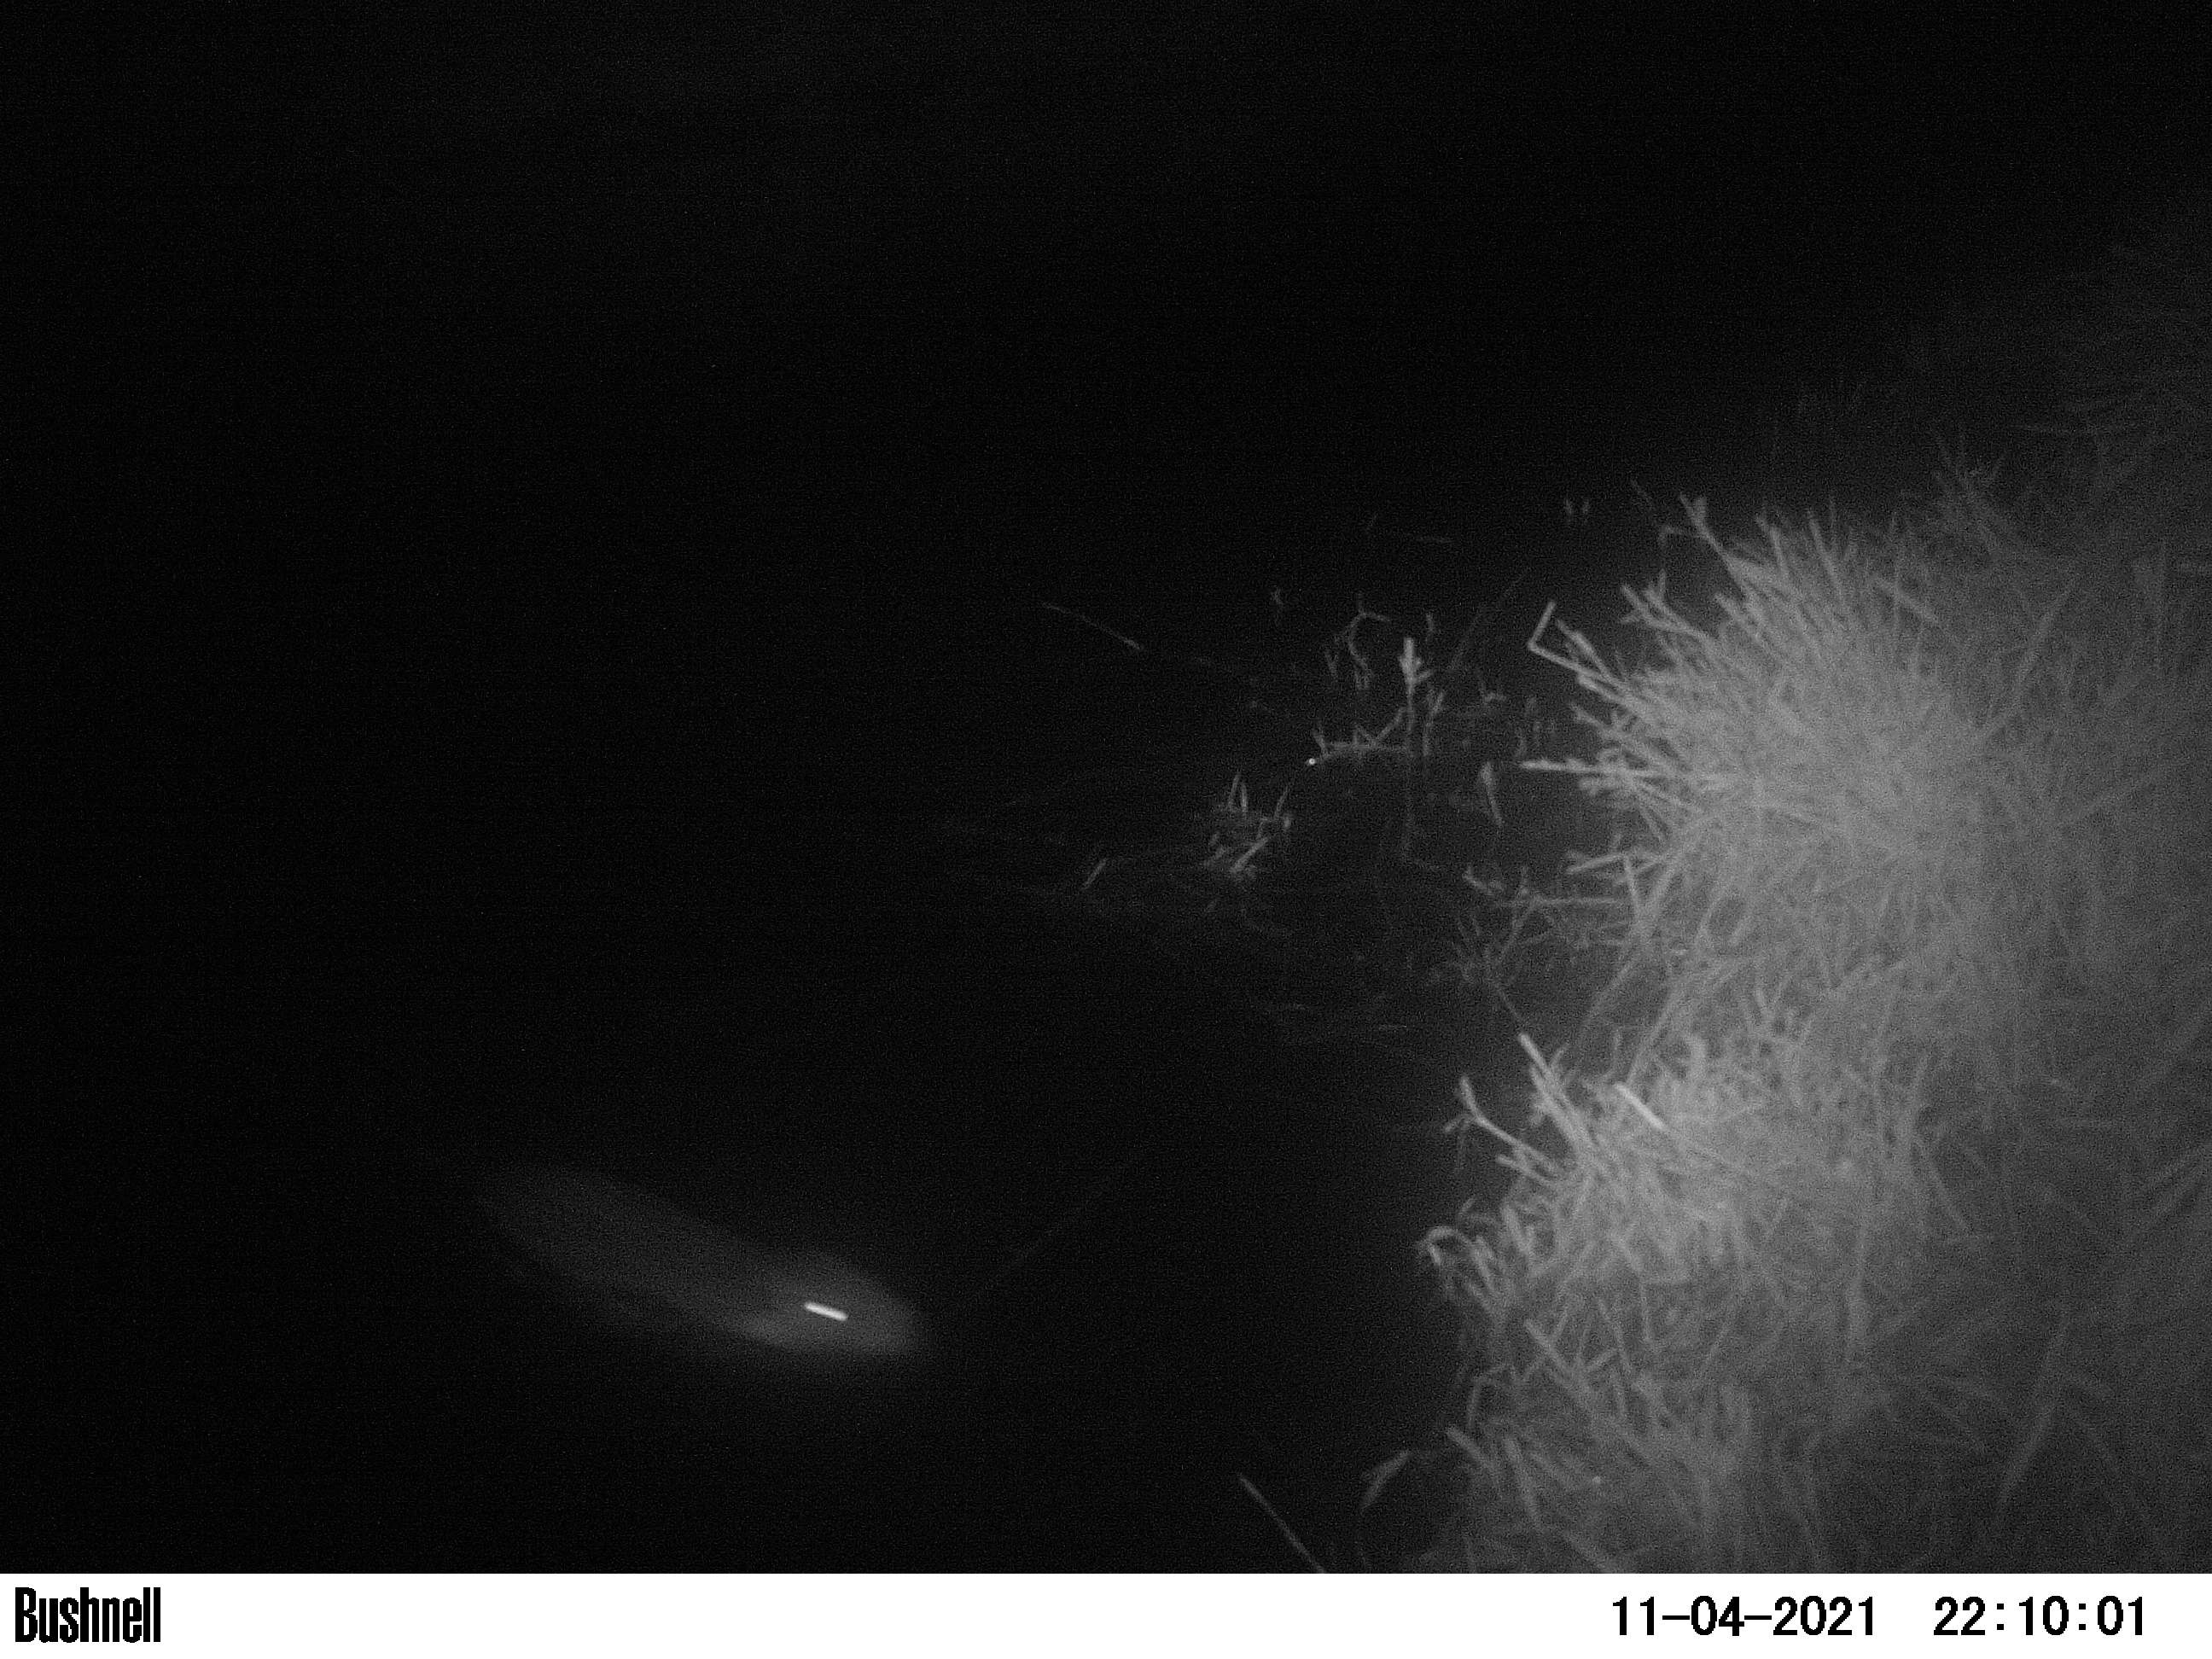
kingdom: Animalia
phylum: Chordata
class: Mammalia
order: Rodentia
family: Myocastoridae
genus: Myocastor
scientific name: Myocastor coypus
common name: Coypu
